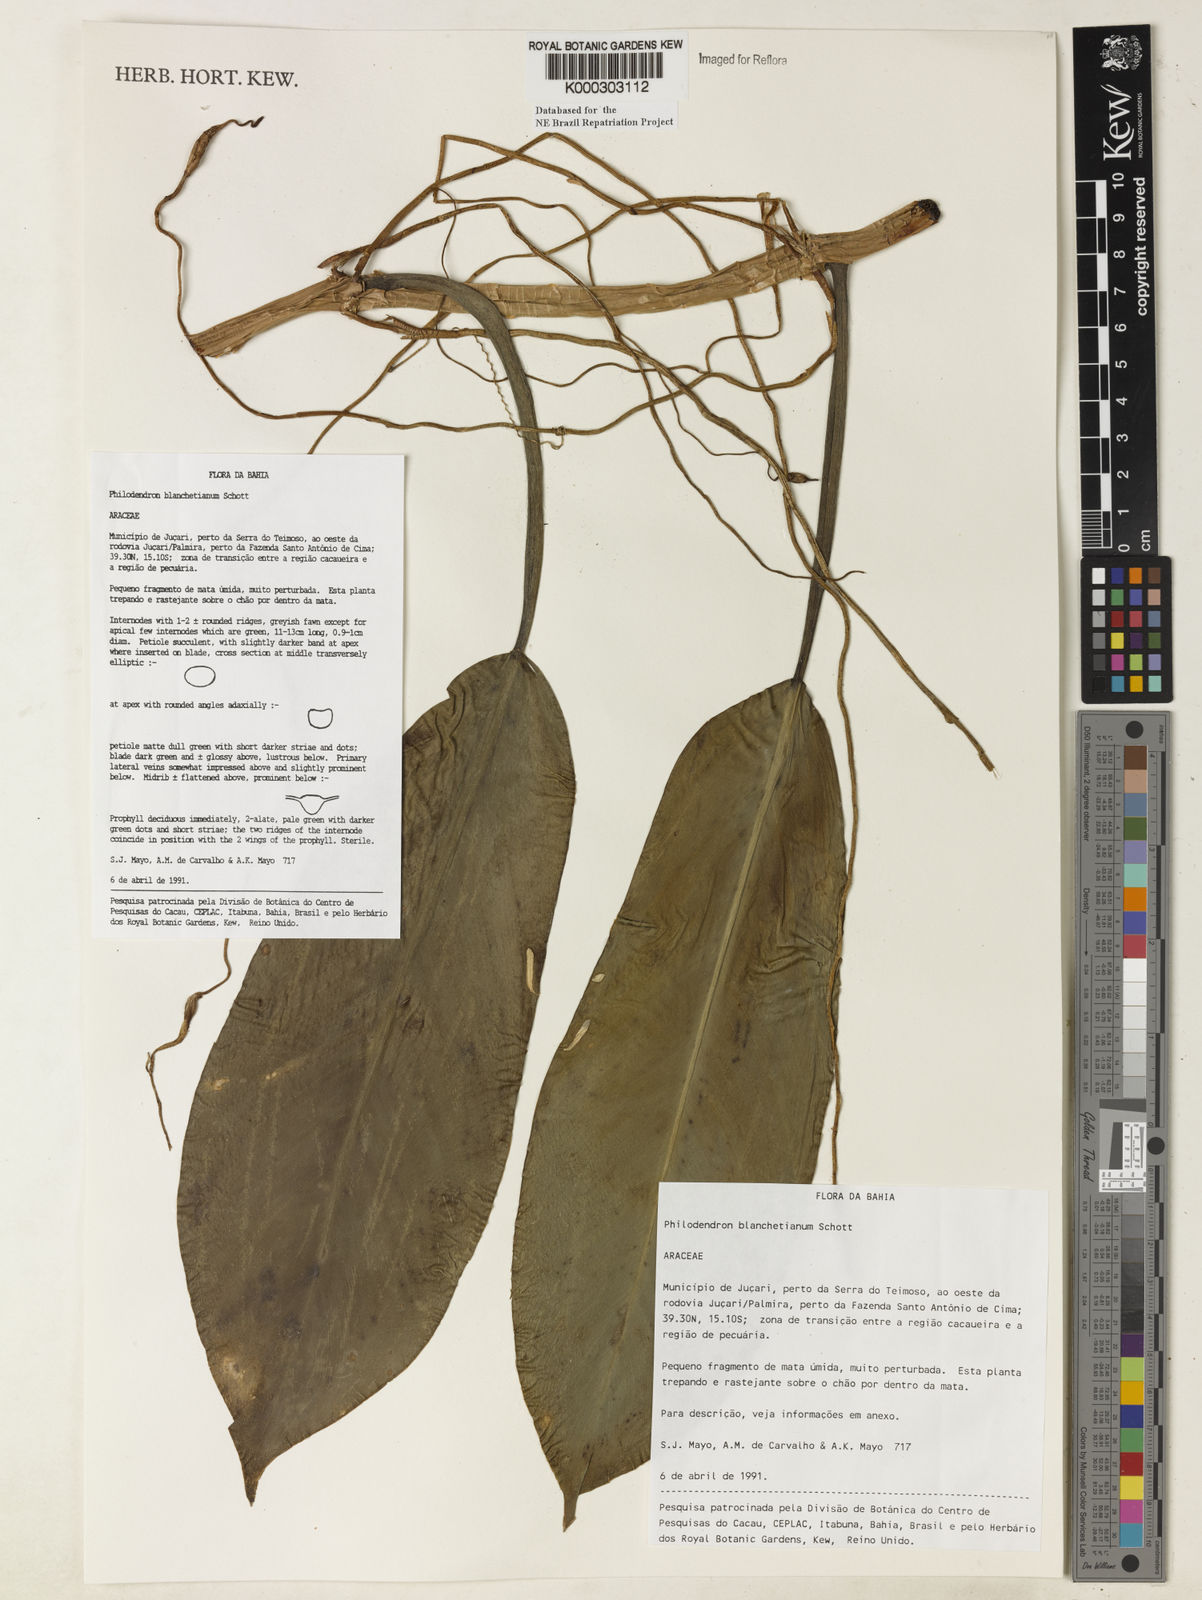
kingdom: Plantae
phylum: Tracheophyta
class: Liliopsida
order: Alismatales
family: Araceae
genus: Philodendron
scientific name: Philodendron blanchetianum
